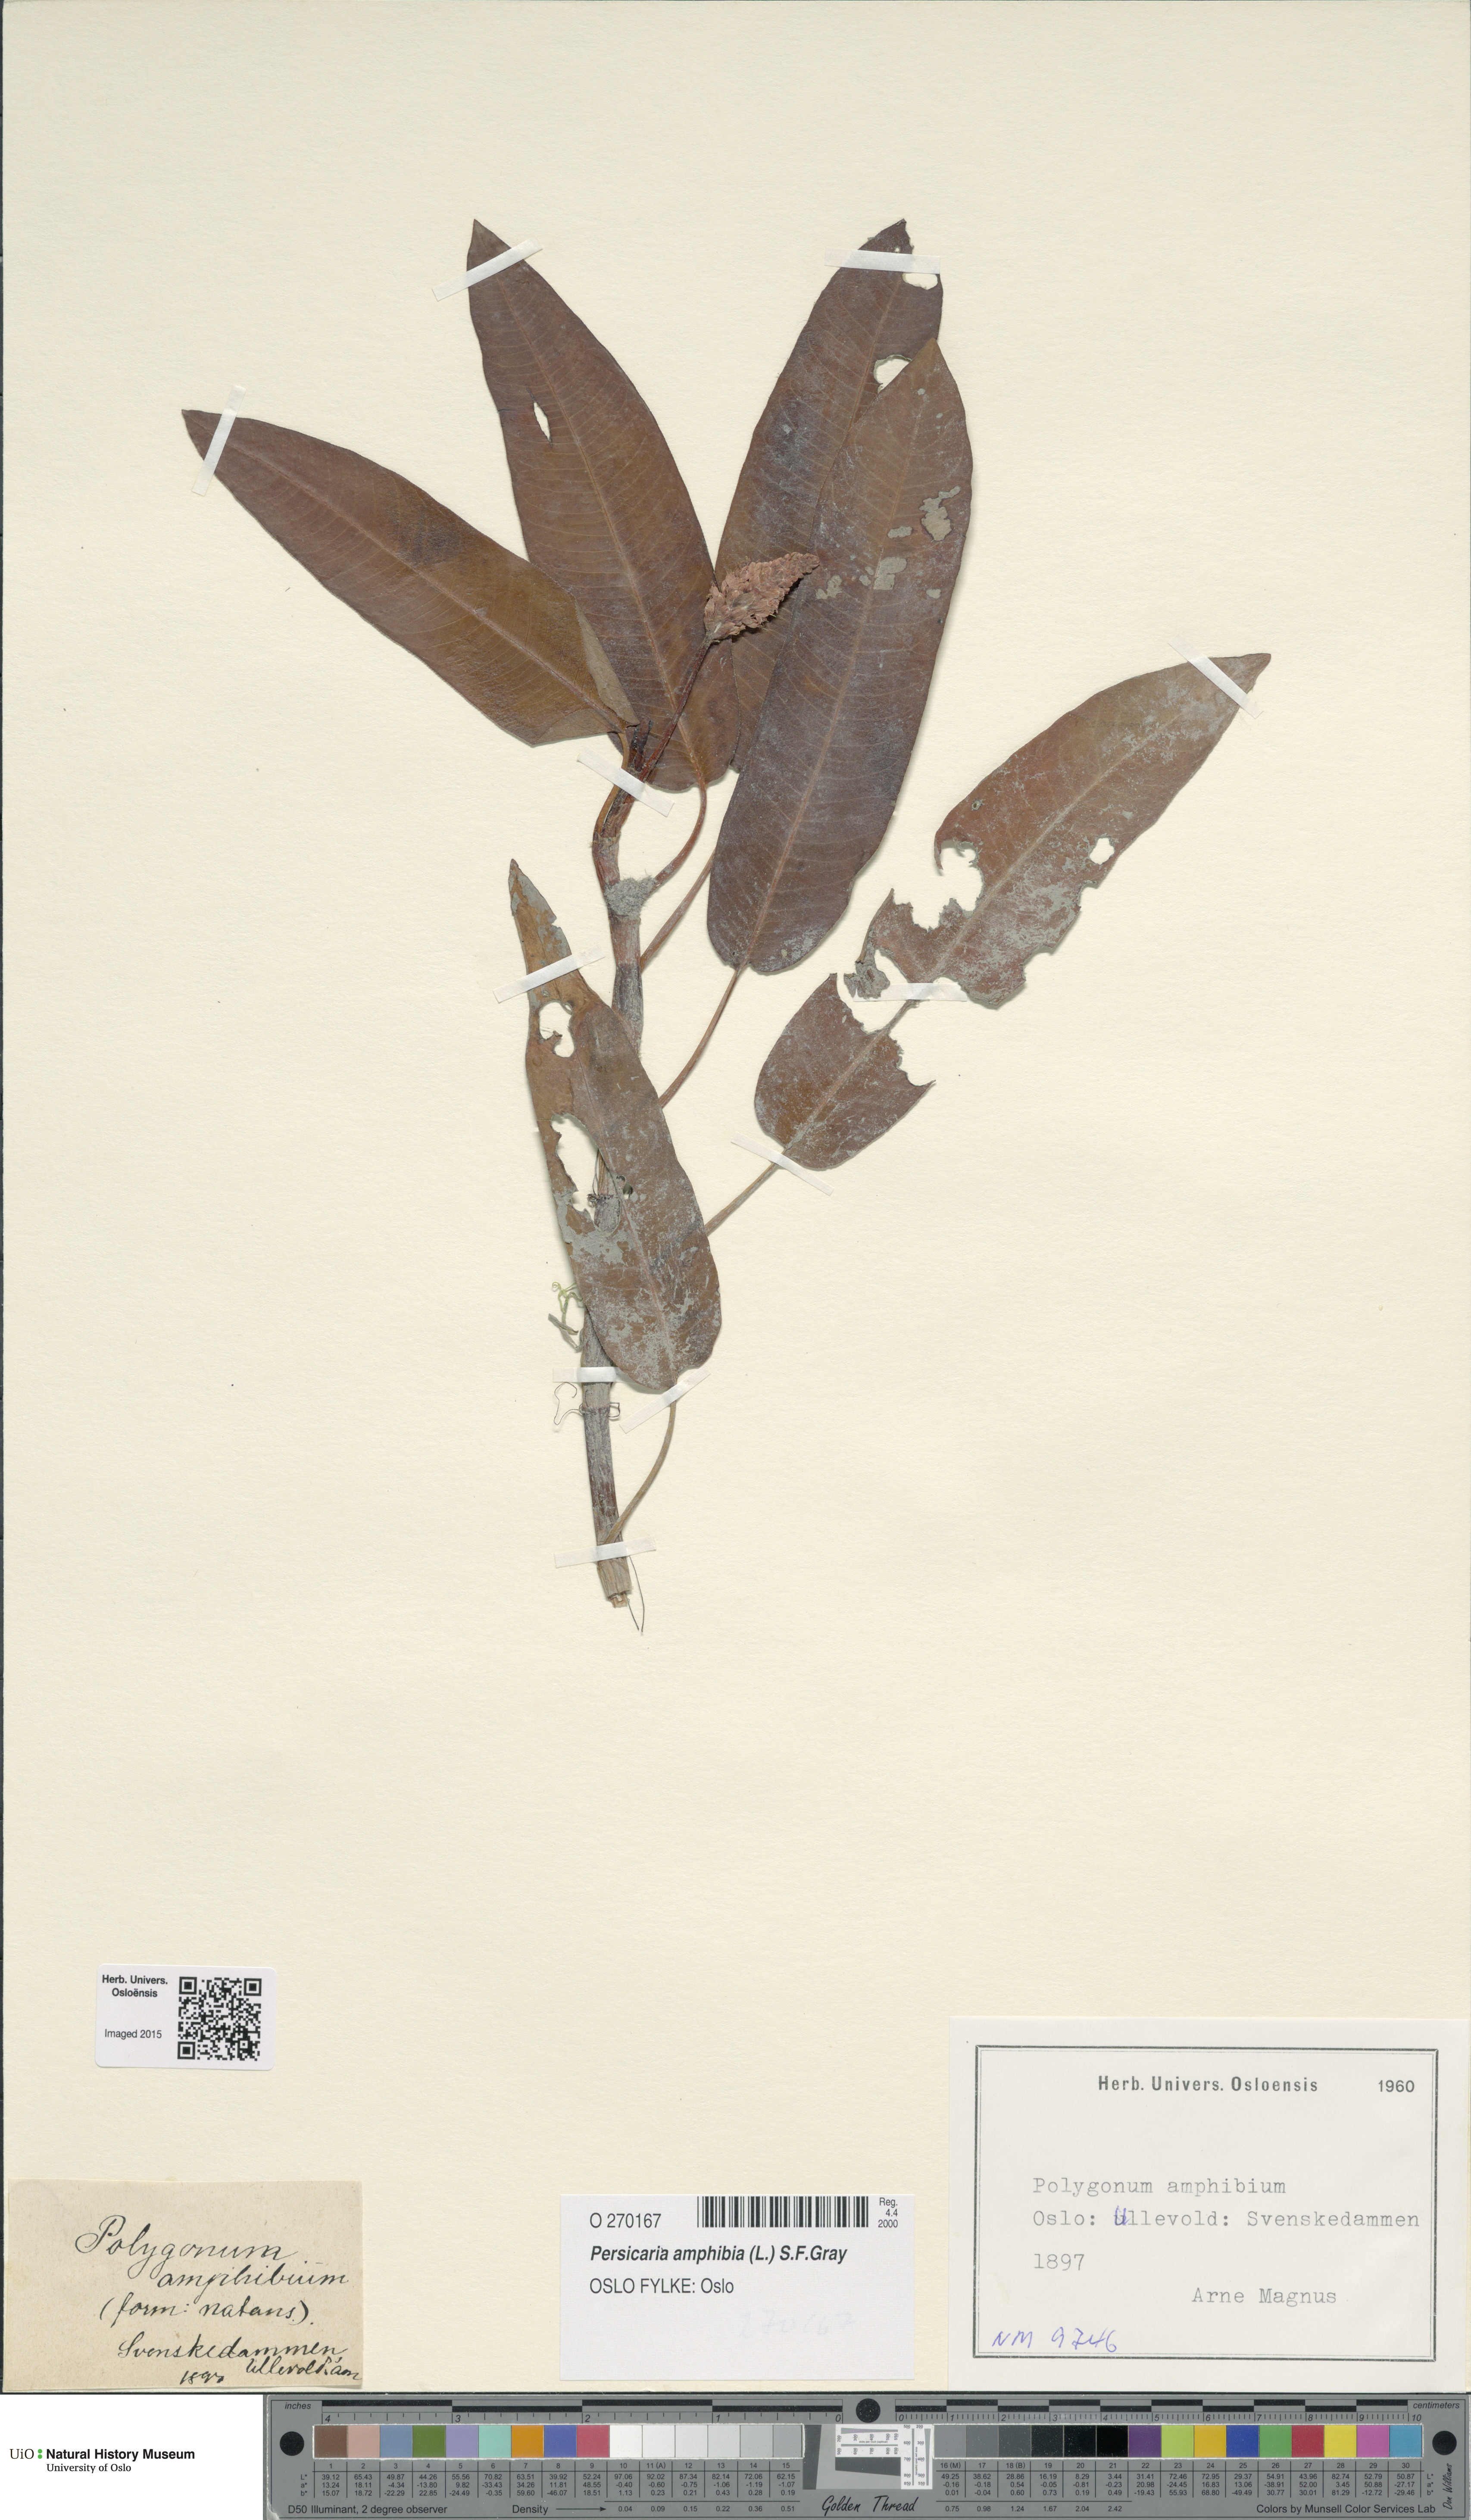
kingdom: Plantae
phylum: Tracheophyta
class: Magnoliopsida
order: Caryophyllales
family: Polygonaceae
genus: Persicaria
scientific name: Persicaria amphibia
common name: Amphibious bistort
